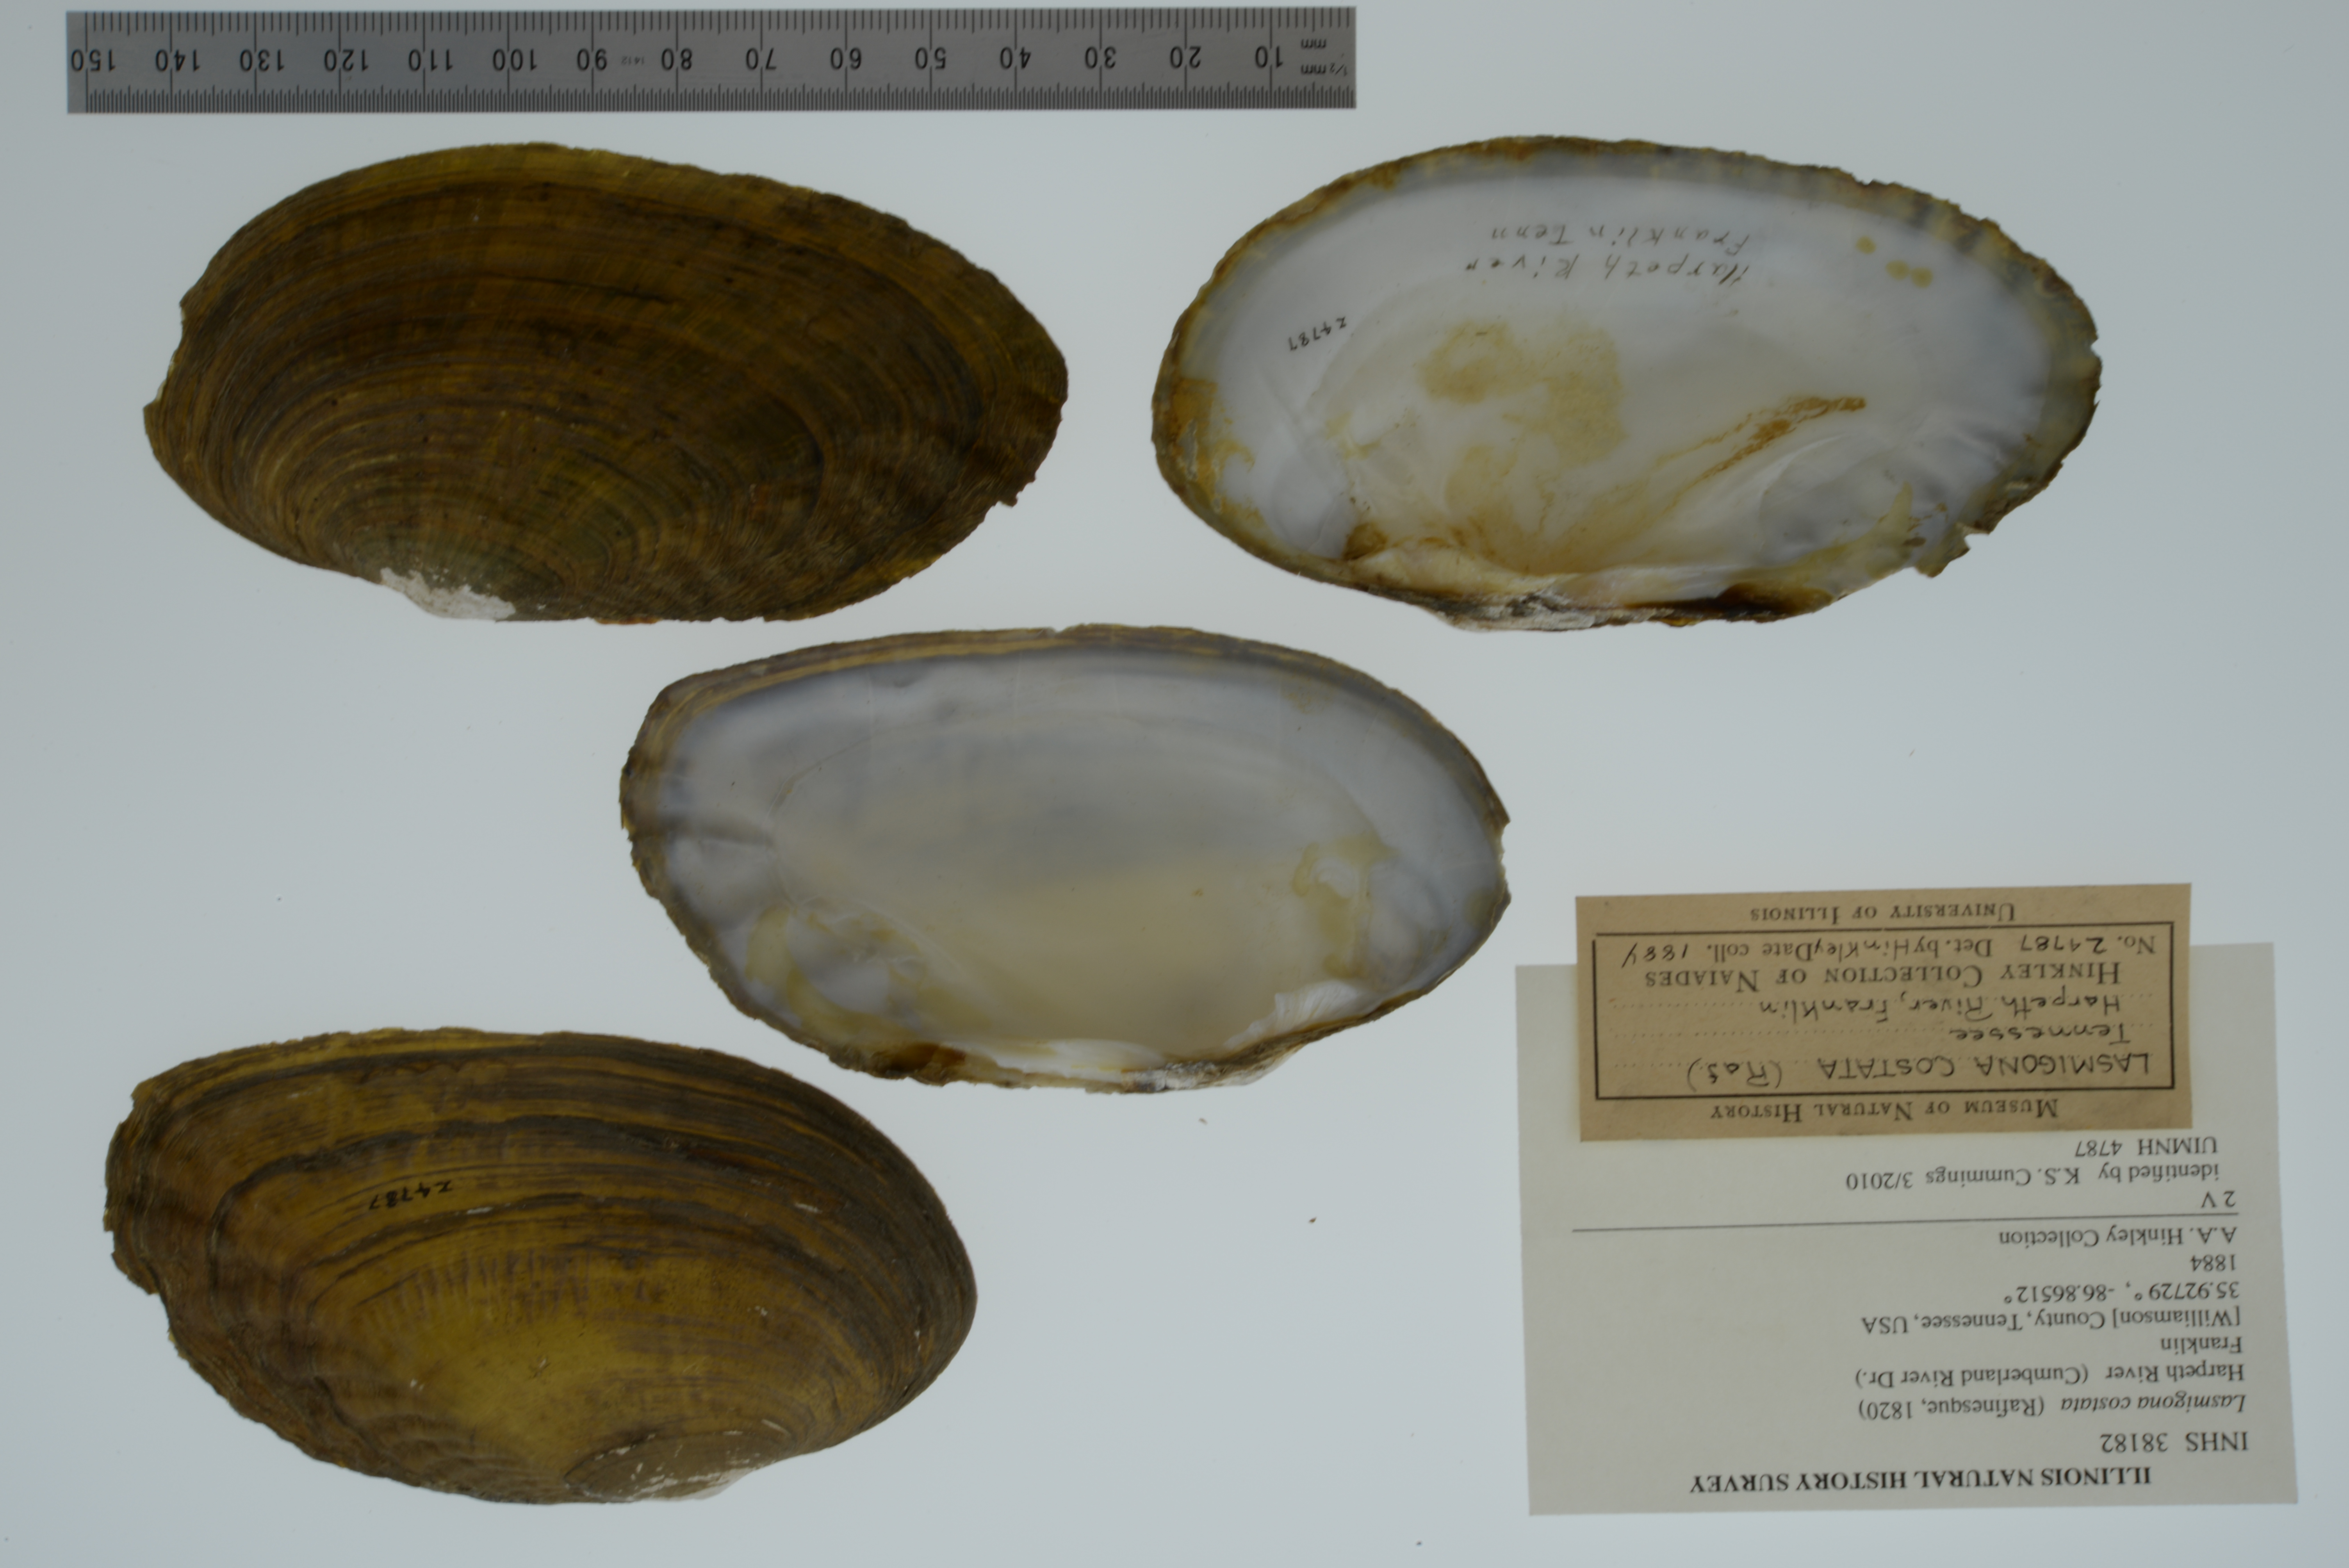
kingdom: Animalia
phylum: Mollusca
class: Bivalvia
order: Unionida
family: Unionidae
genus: Lasmigona
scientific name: Lasmigona costata
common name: Flutedshell
